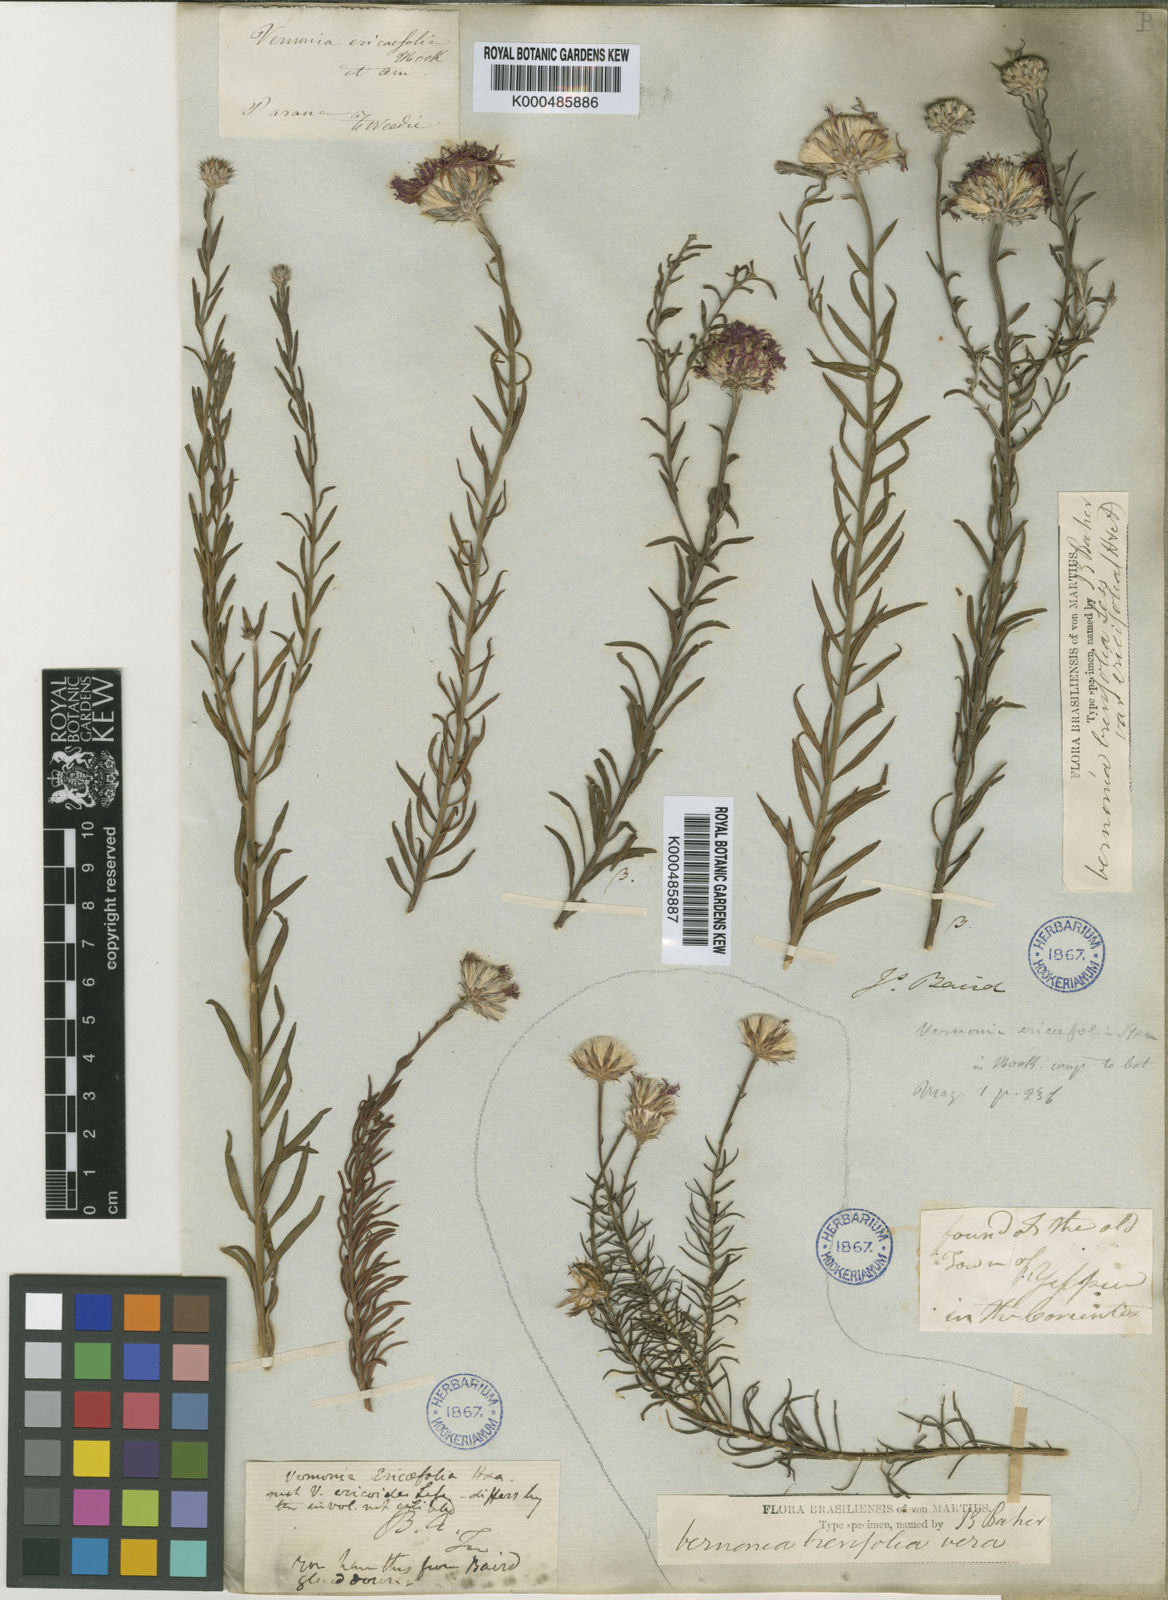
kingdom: Plantae
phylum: Tracheophyta
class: Magnoliopsida
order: Asterales
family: Asteraceae
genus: Lessingianthus
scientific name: Lessingianthus brevifolius
